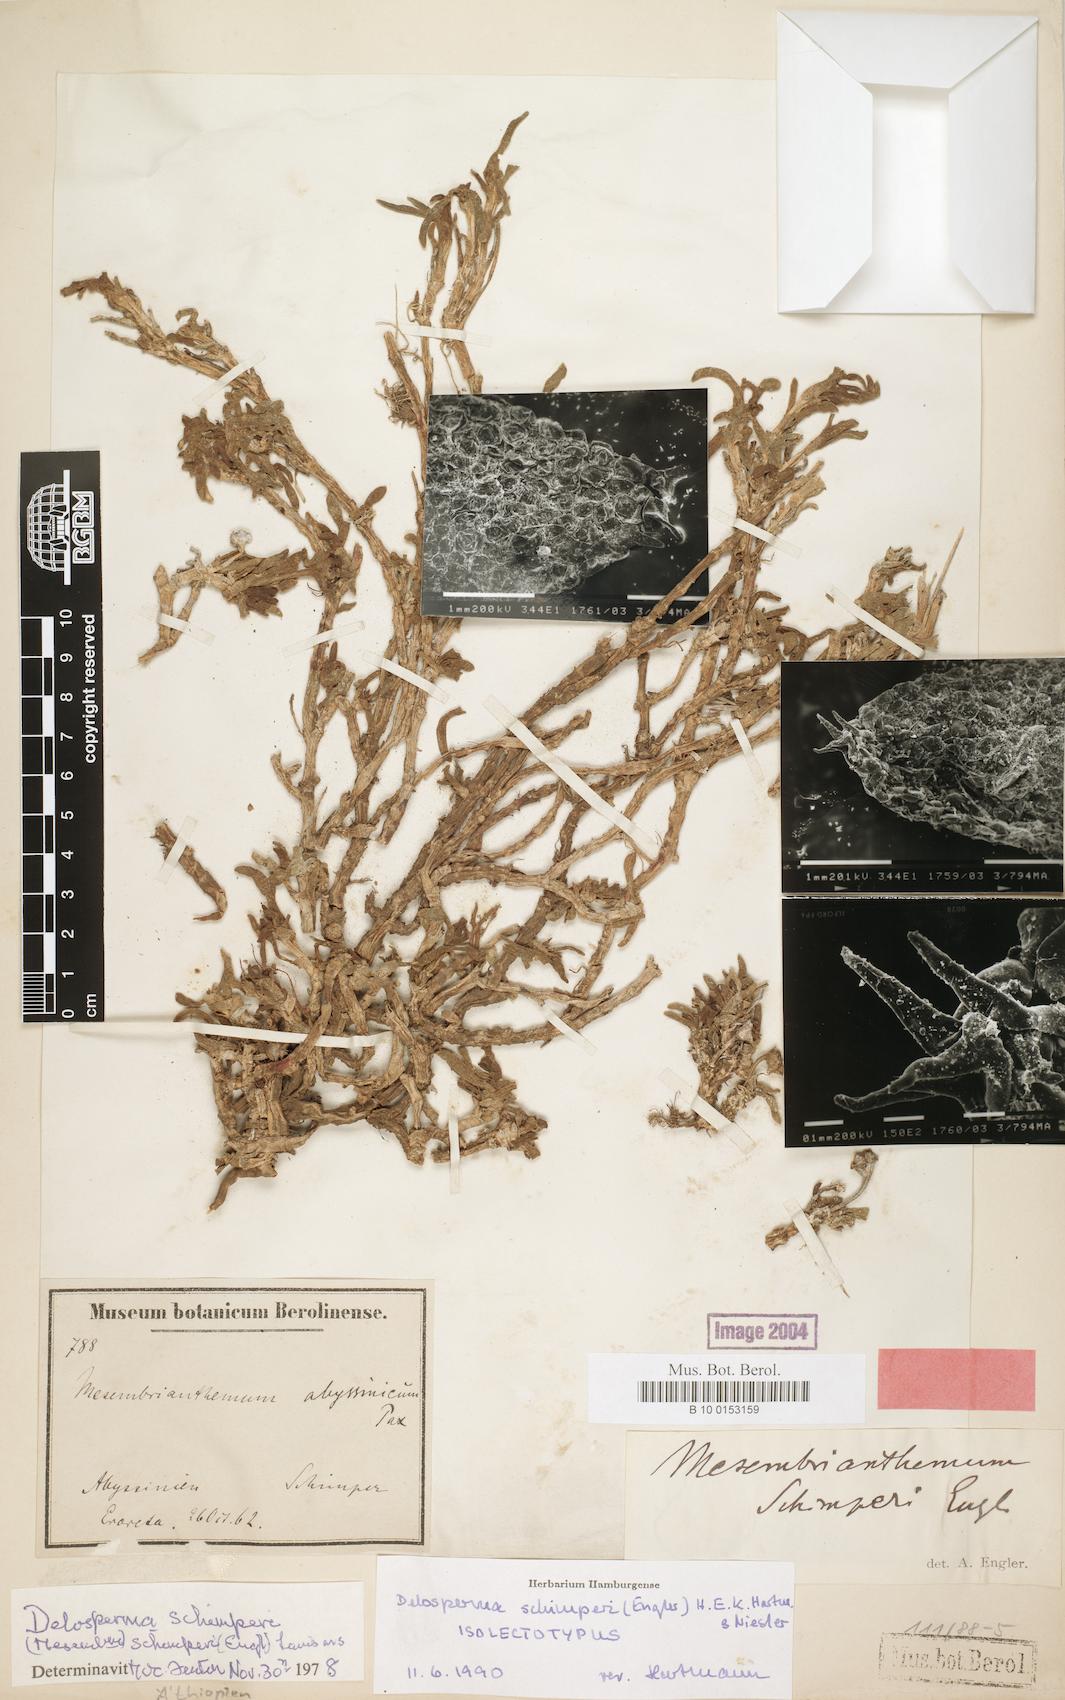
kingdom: Plantae
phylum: Tracheophyta
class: Magnoliopsida
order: Caryophyllales
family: Aizoaceae
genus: Delosperma
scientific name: Delosperma schimperi
